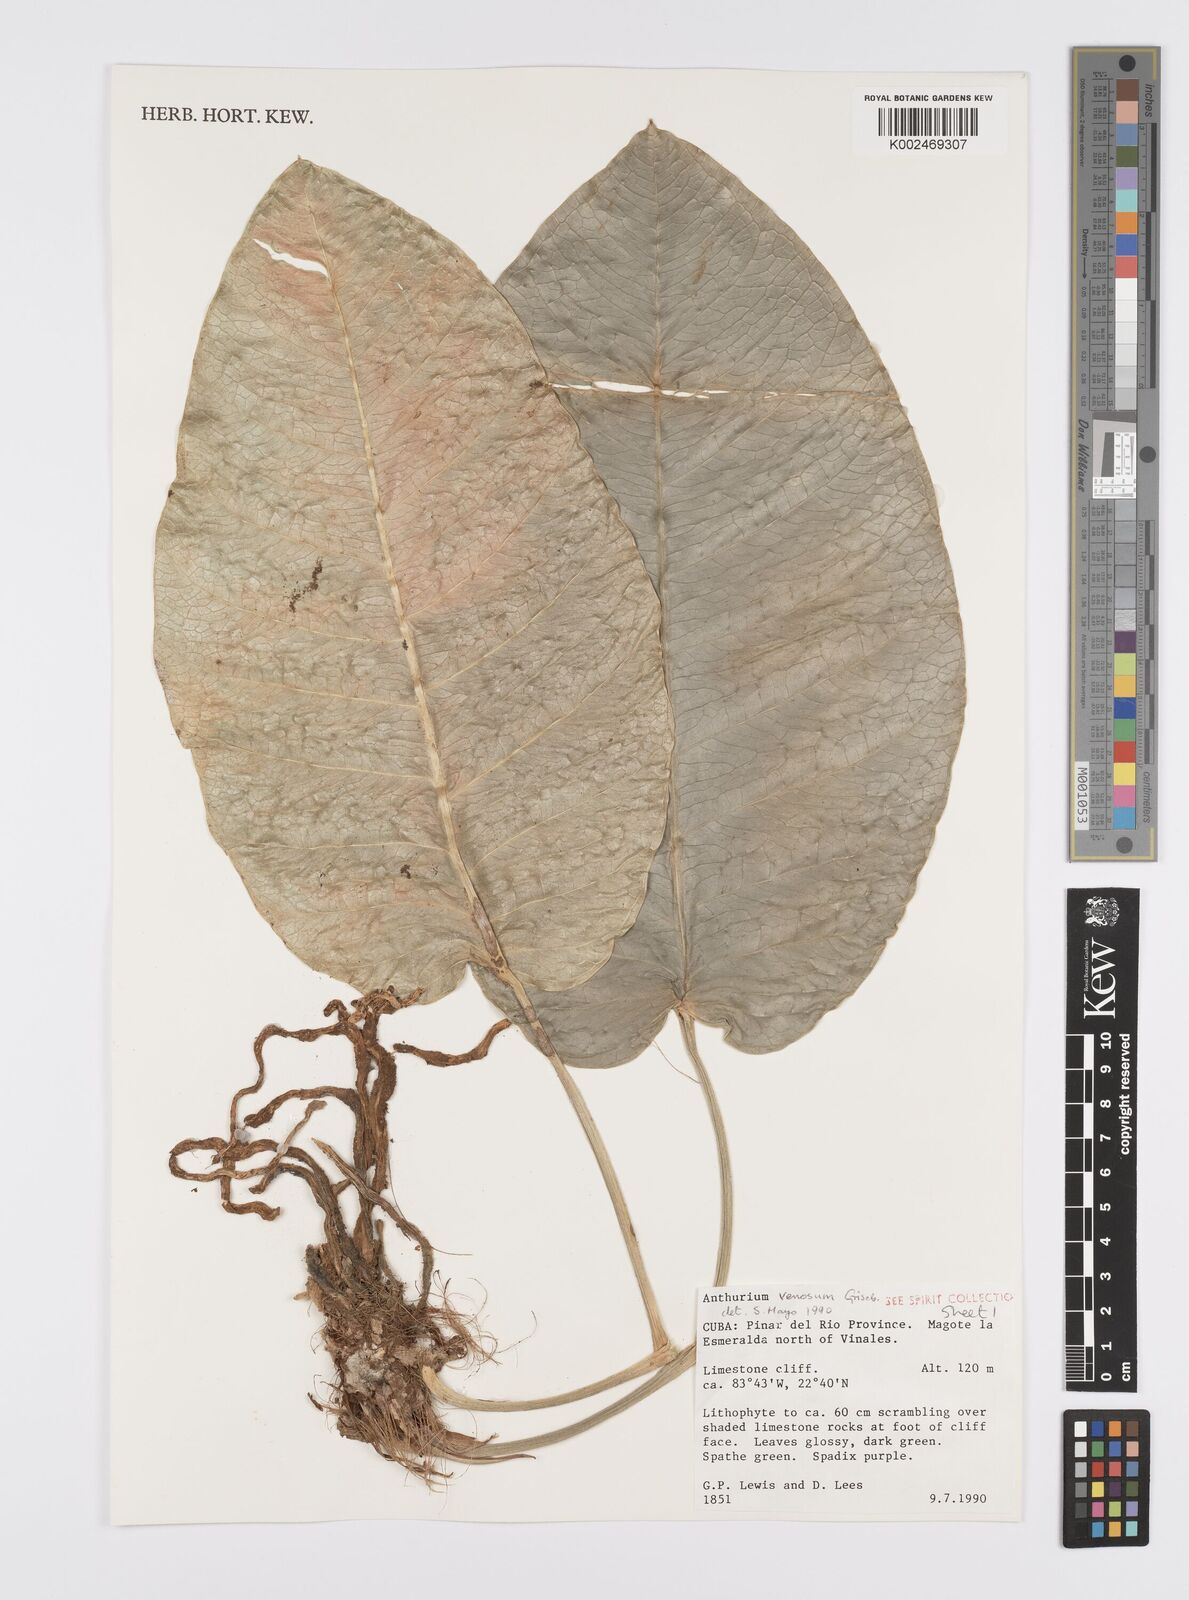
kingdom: Plantae
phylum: Tracheophyta
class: Liliopsida
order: Alismatales
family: Araceae
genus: Anthurium
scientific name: Anthurium venosum
